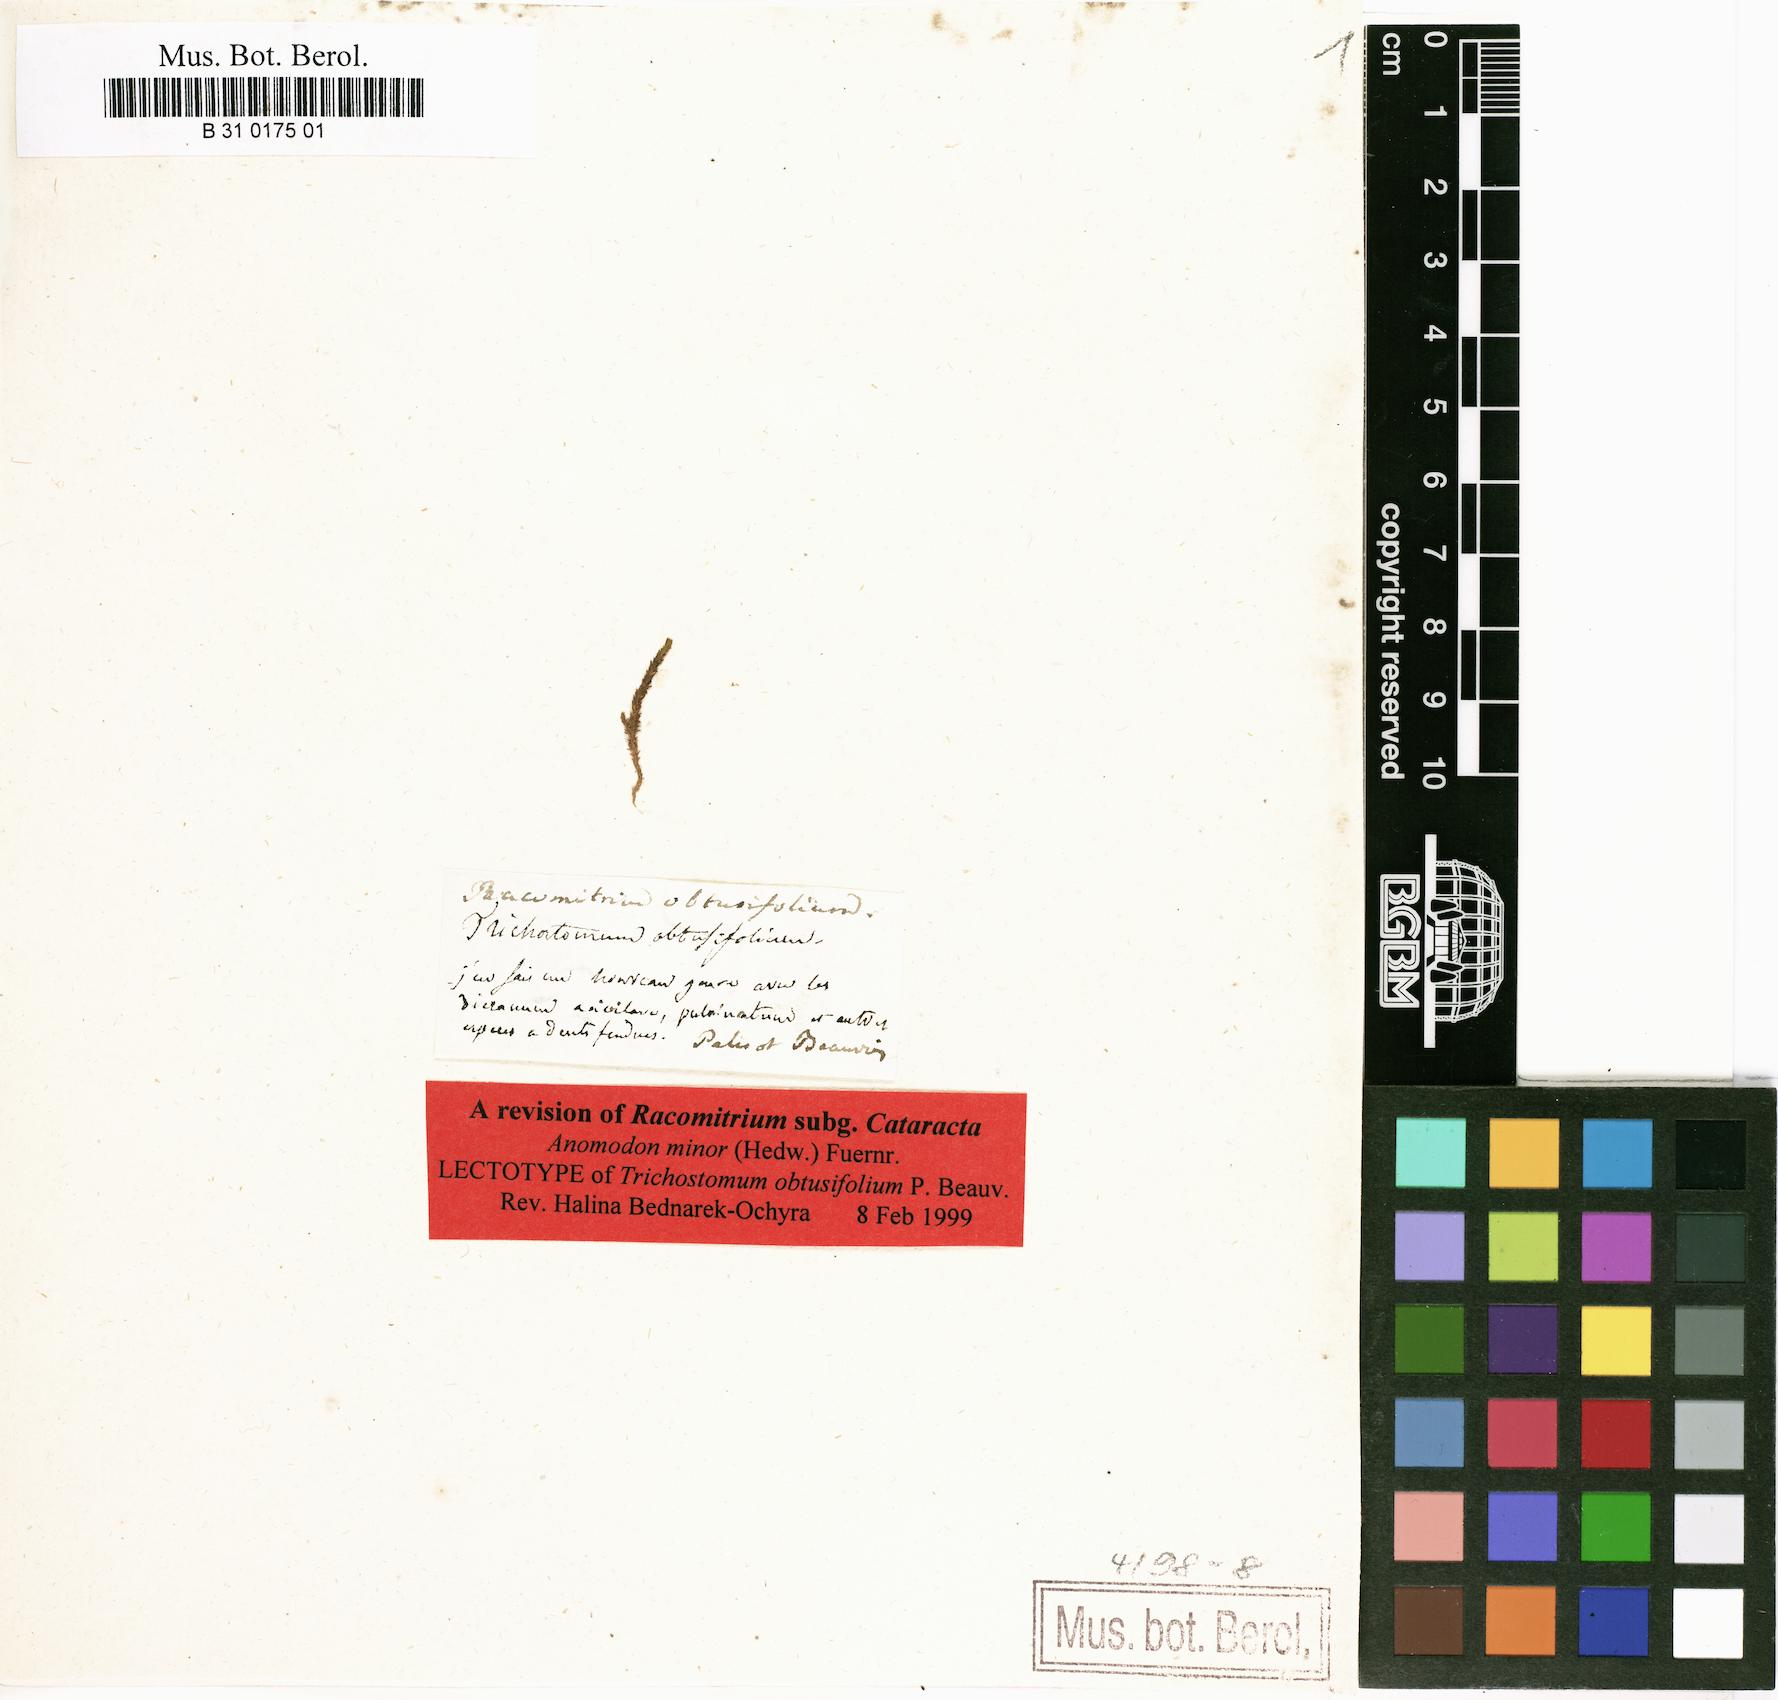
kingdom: Plantae
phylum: Bryophyta
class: Bryopsida
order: Grimmiales
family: Grimmiaceae
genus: Racomitrium
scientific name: Racomitrium
